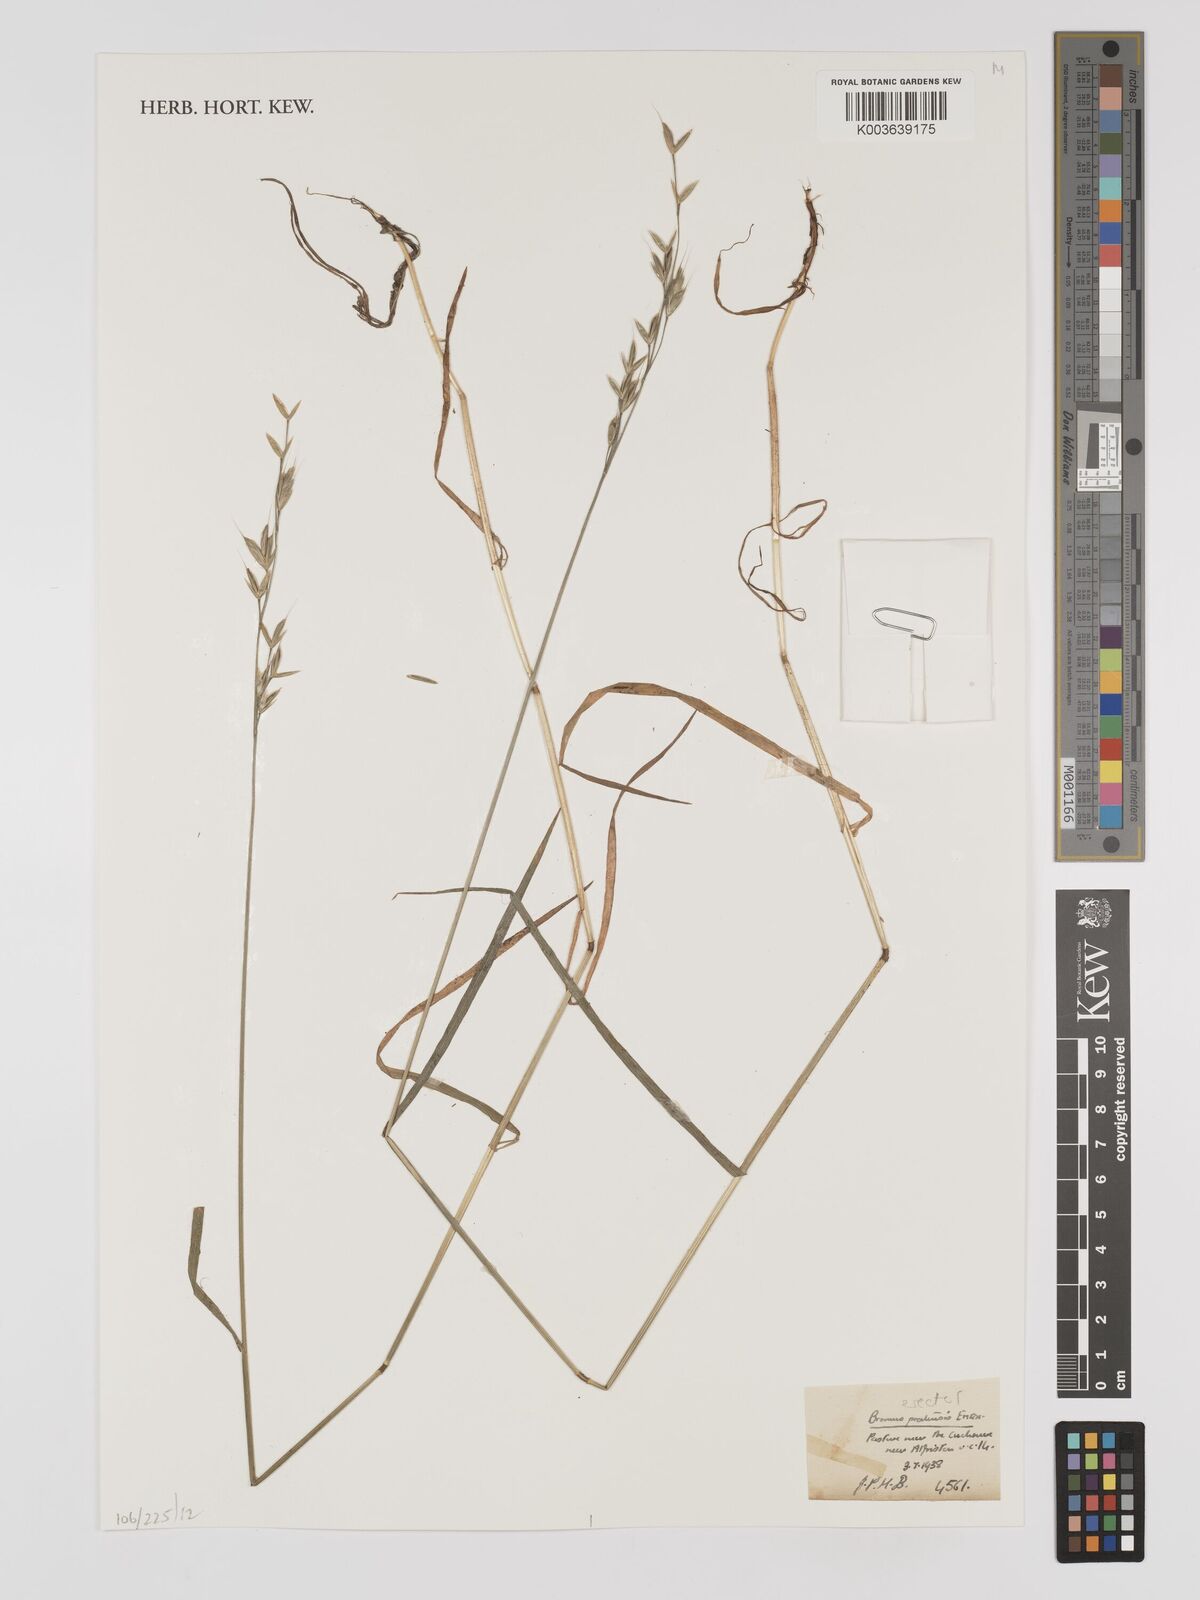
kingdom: Plantae
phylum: Tracheophyta
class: Liliopsida
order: Poales
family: Poaceae
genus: Bromus
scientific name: Bromus erectus
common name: Erect brome
